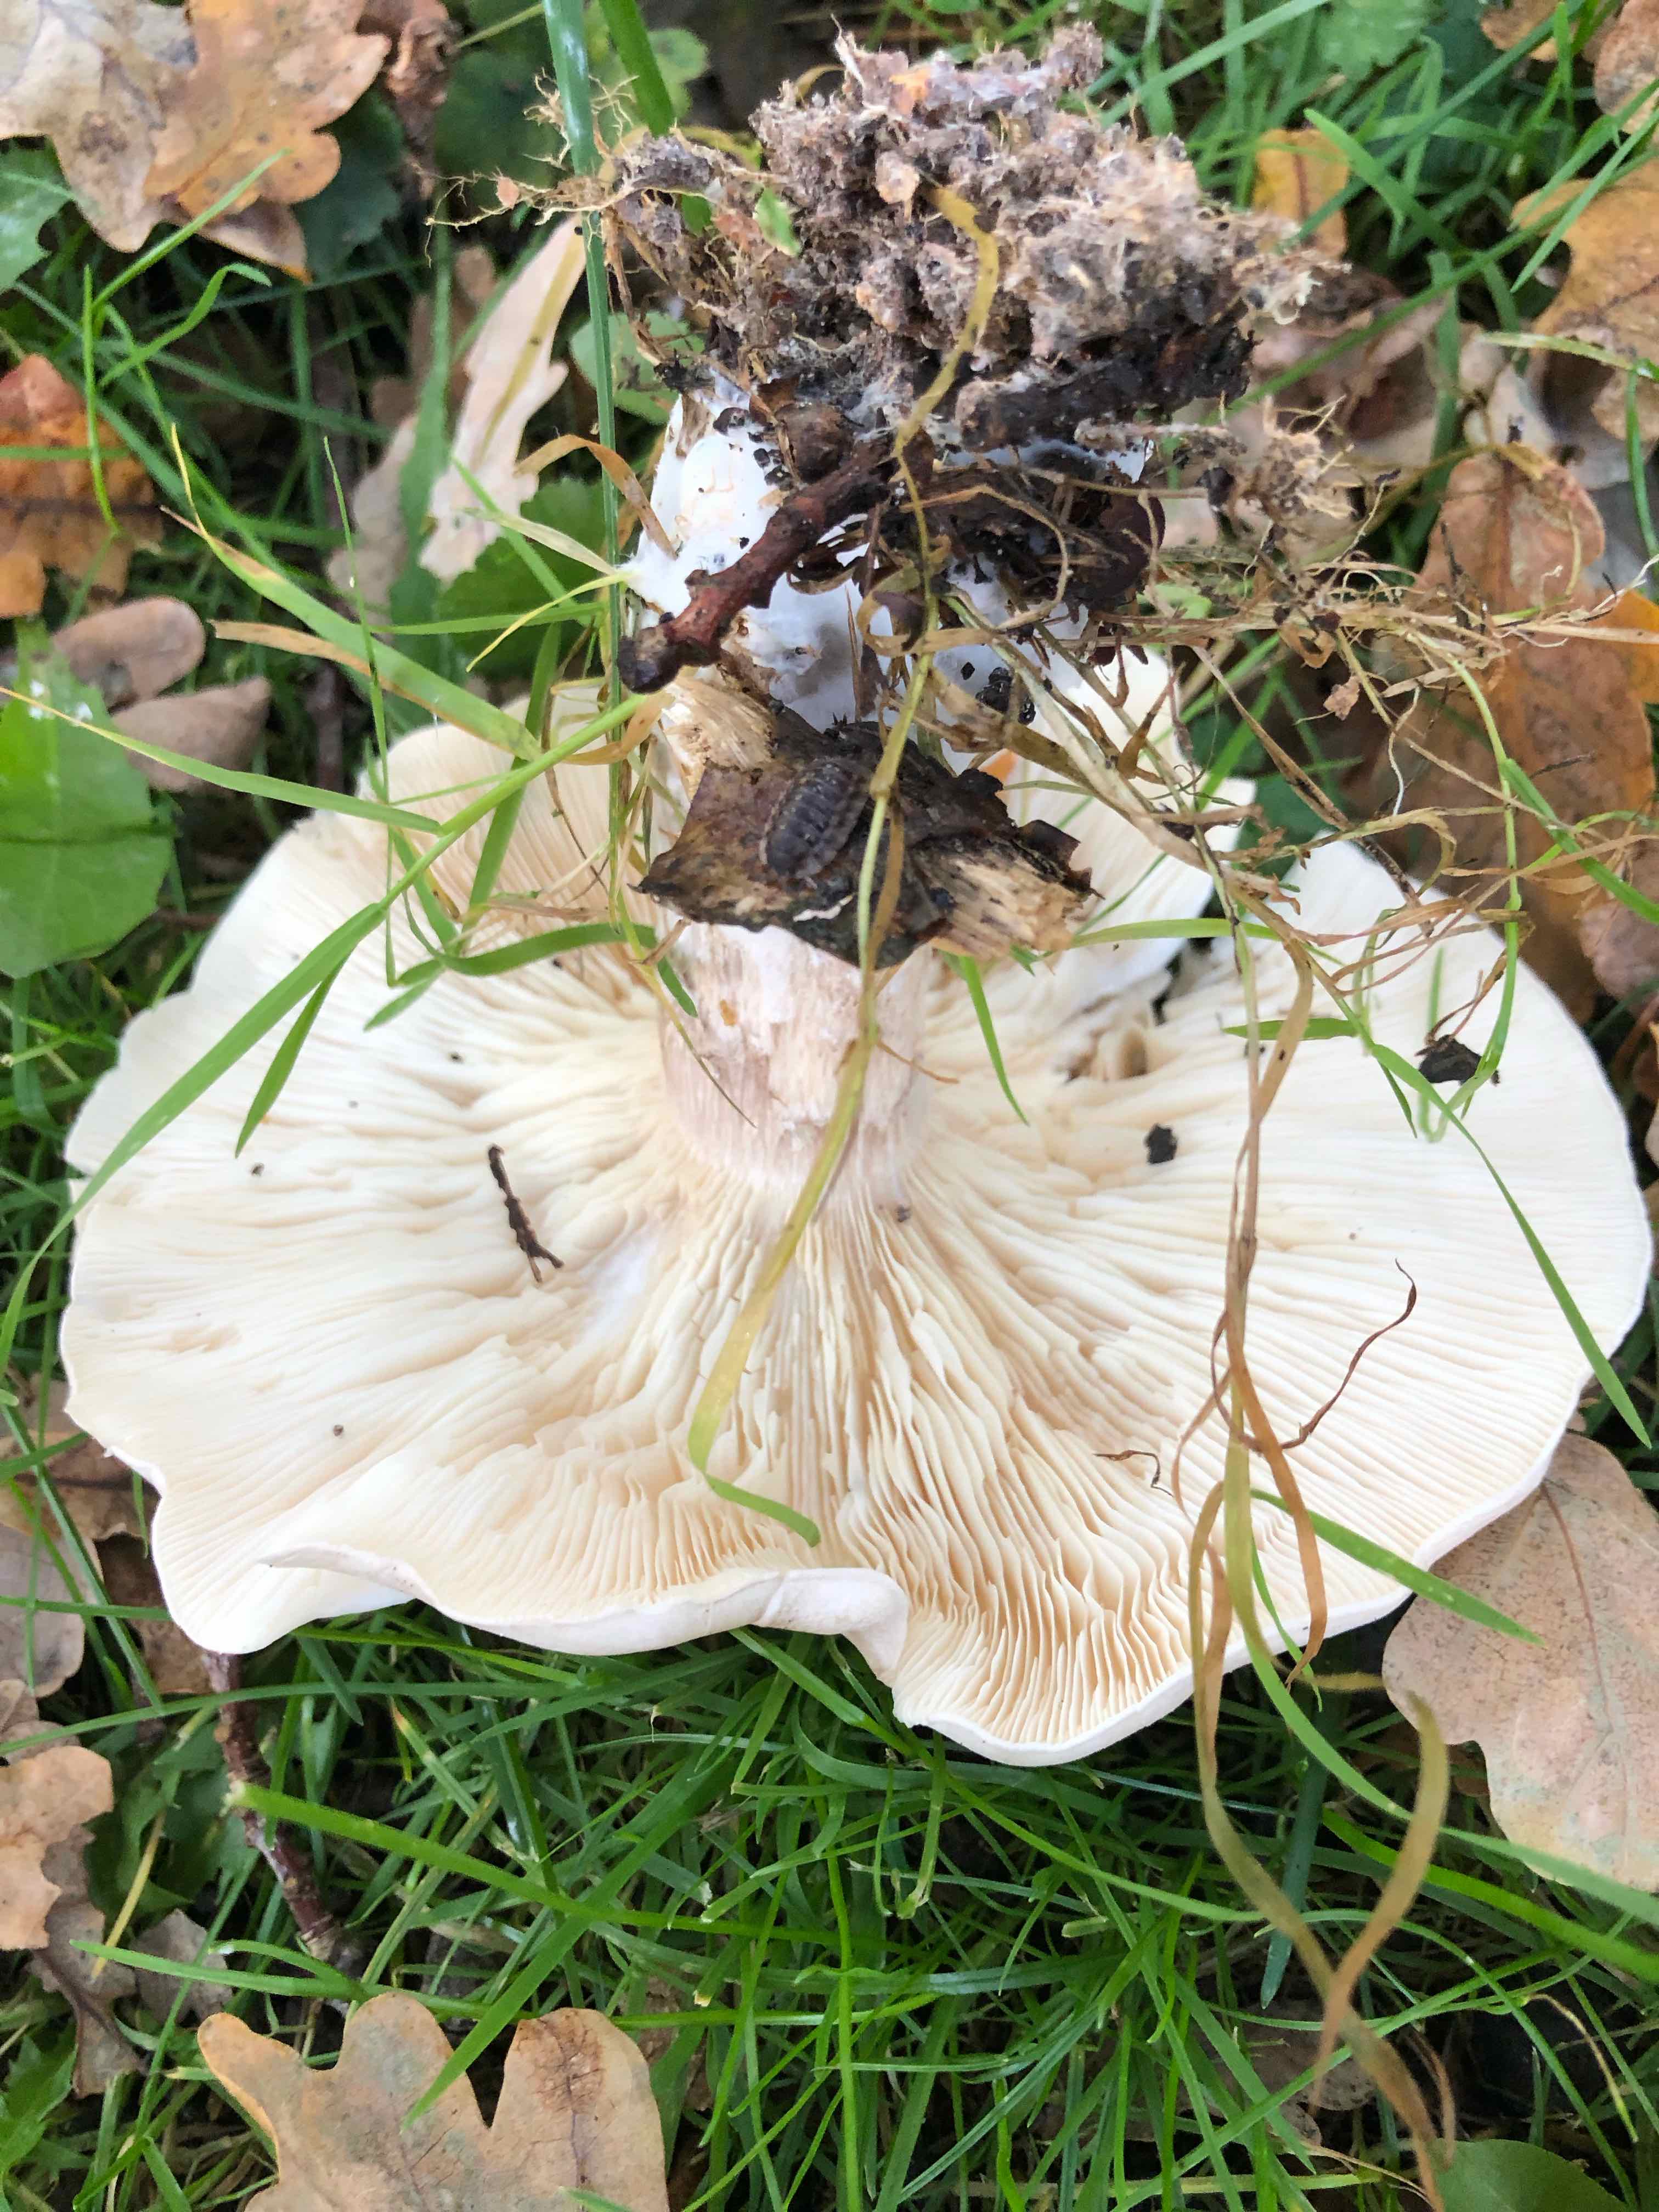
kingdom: Fungi
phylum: Basidiomycota
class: Agaricomycetes
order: Agaricales
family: Tricholomataceae
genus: Clitocybe
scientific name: Clitocybe nebularis
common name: tåge-tragthat
